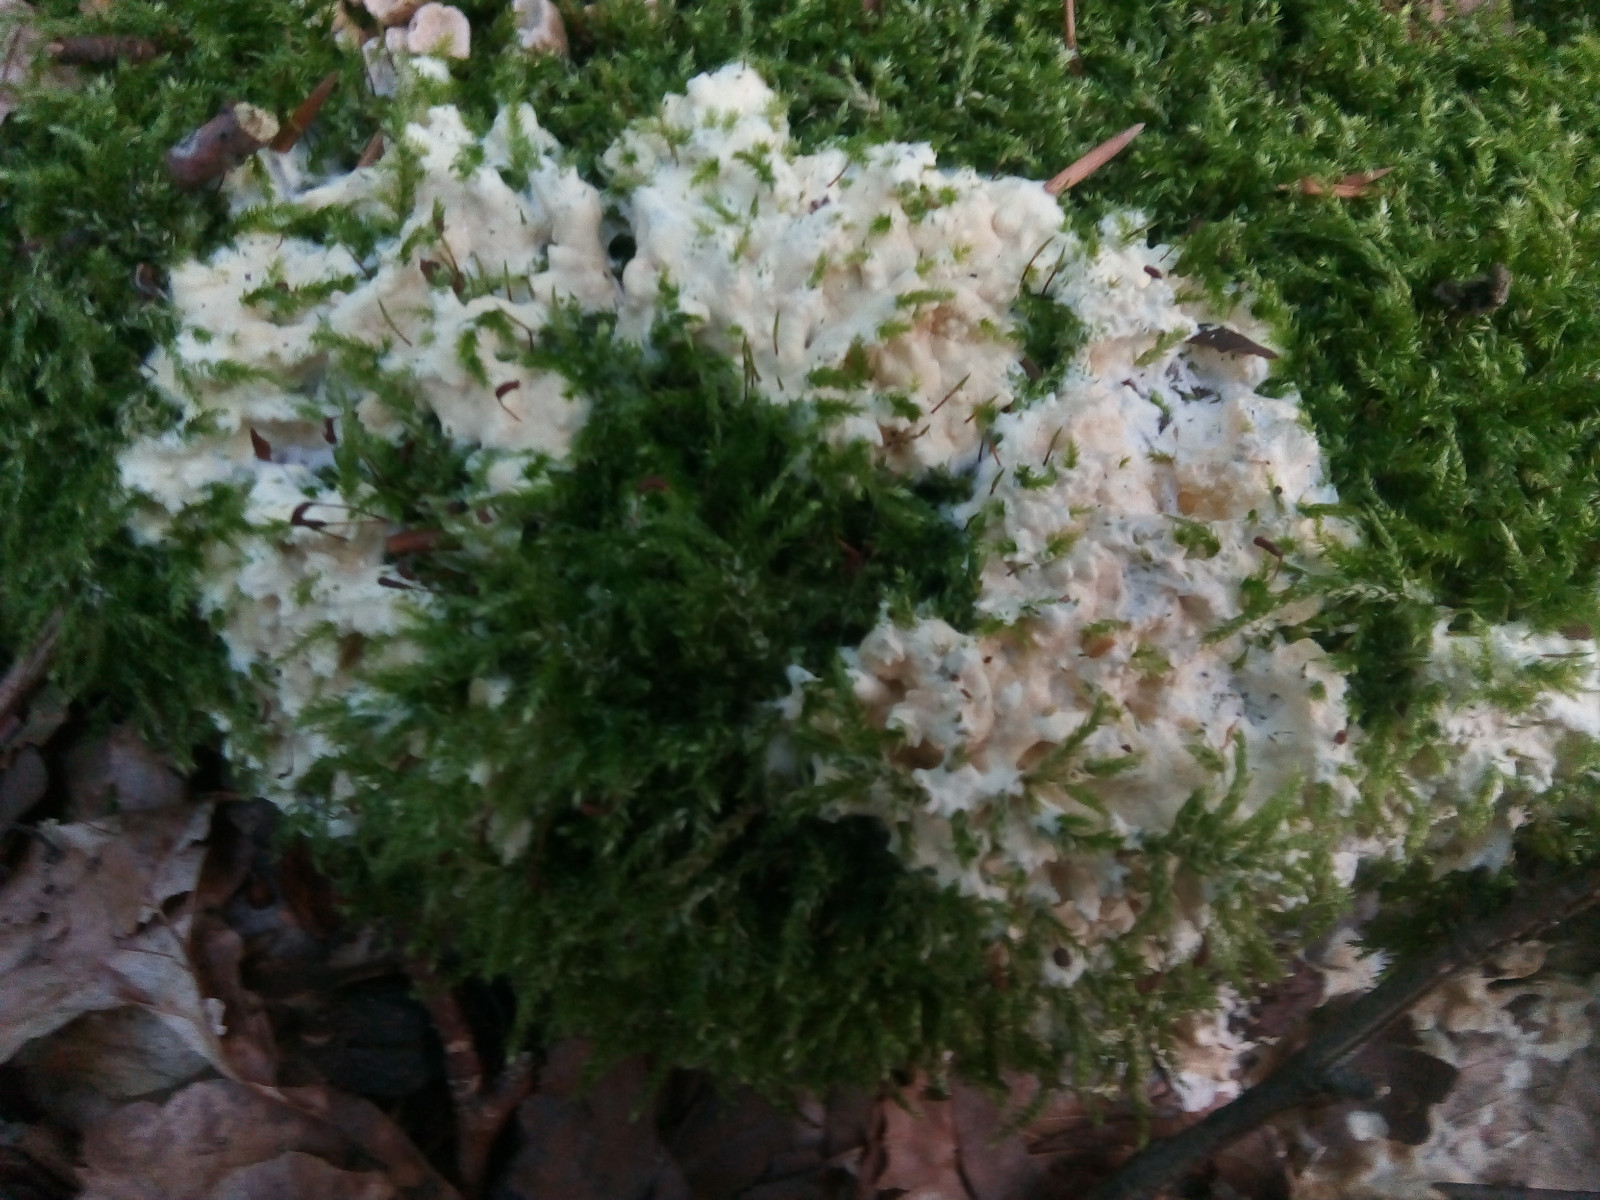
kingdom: Fungi
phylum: Ascomycota
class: Sordariomycetes
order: Hypocreales
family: Hypocreaceae
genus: Trichoderma
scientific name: Trichoderma citrinum
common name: udbredt kødkerne
